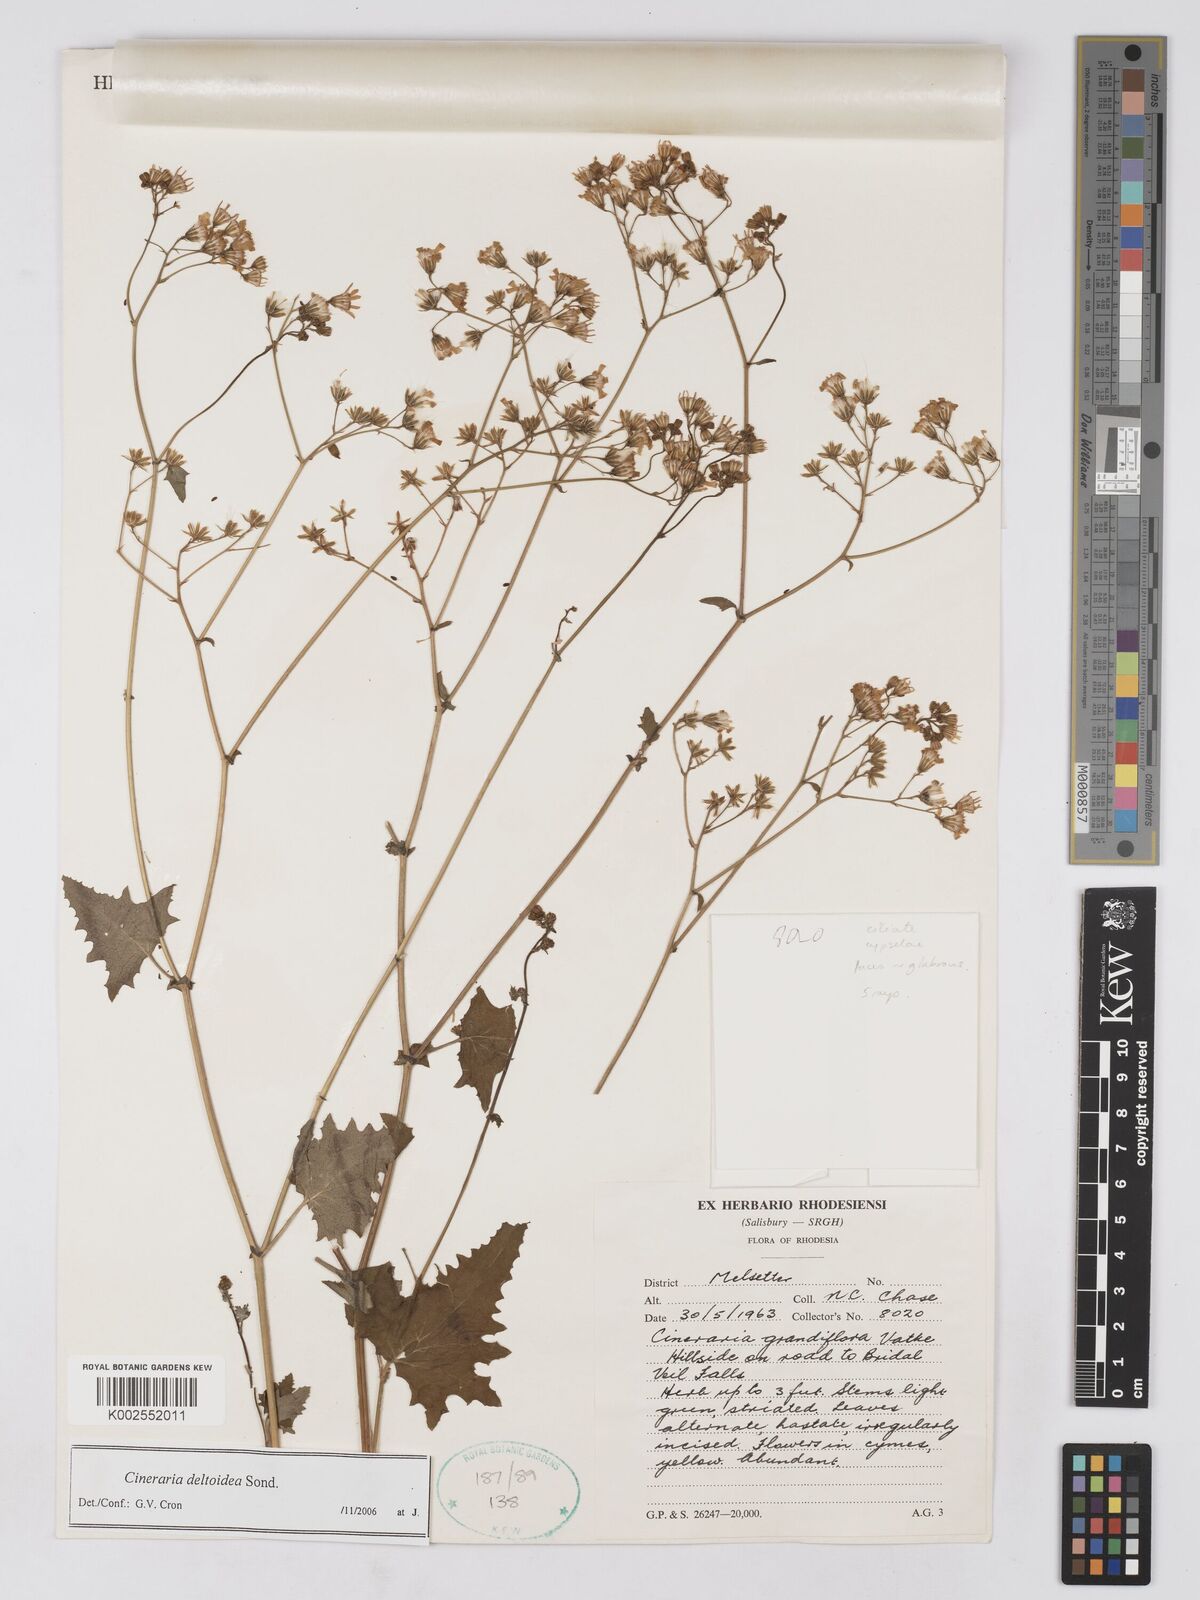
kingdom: Plantae
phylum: Tracheophyta
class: Magnoliopsida
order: Asterales
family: Asteraceae
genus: Cineraria
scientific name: Cineraria deltoidea
